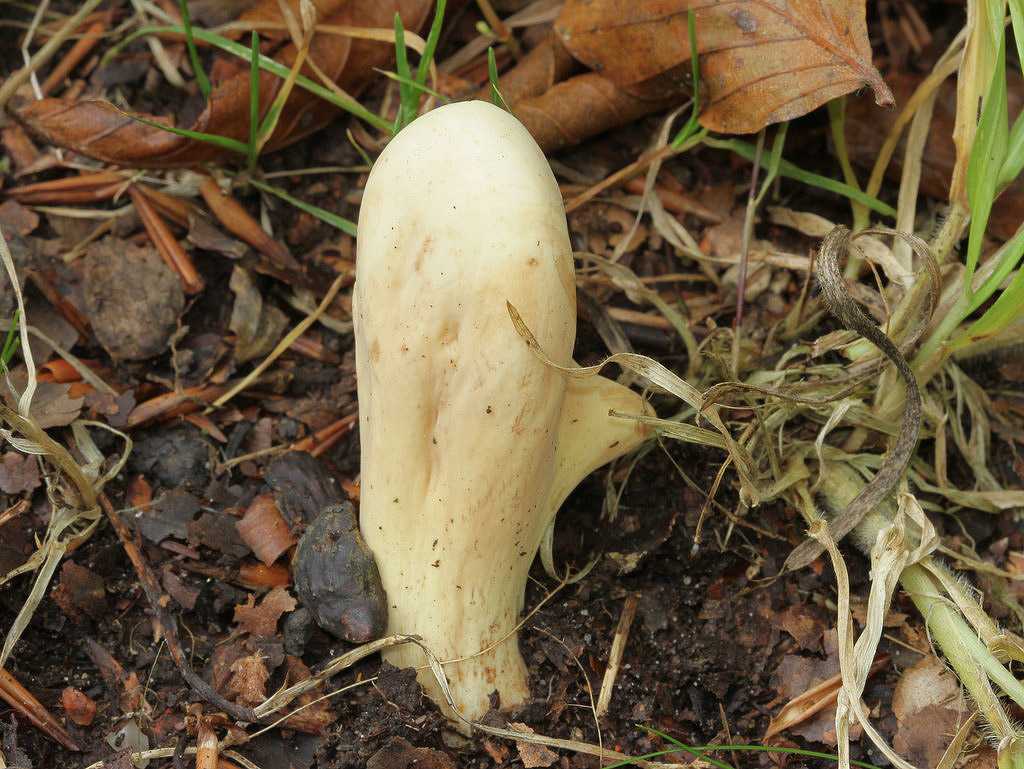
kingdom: Fungi
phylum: Basidiomycota
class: Agaricomycetes
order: Gomphales
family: Clavariadelphaceae
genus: Clavariadelphus
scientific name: Clavariadelphus pistillaris
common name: herkules-kæmpekølle
